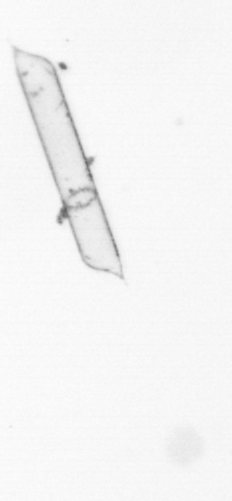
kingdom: Chromista
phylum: Ochrophyta
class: Bacillariophyceae
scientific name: Bacillariophyceae
